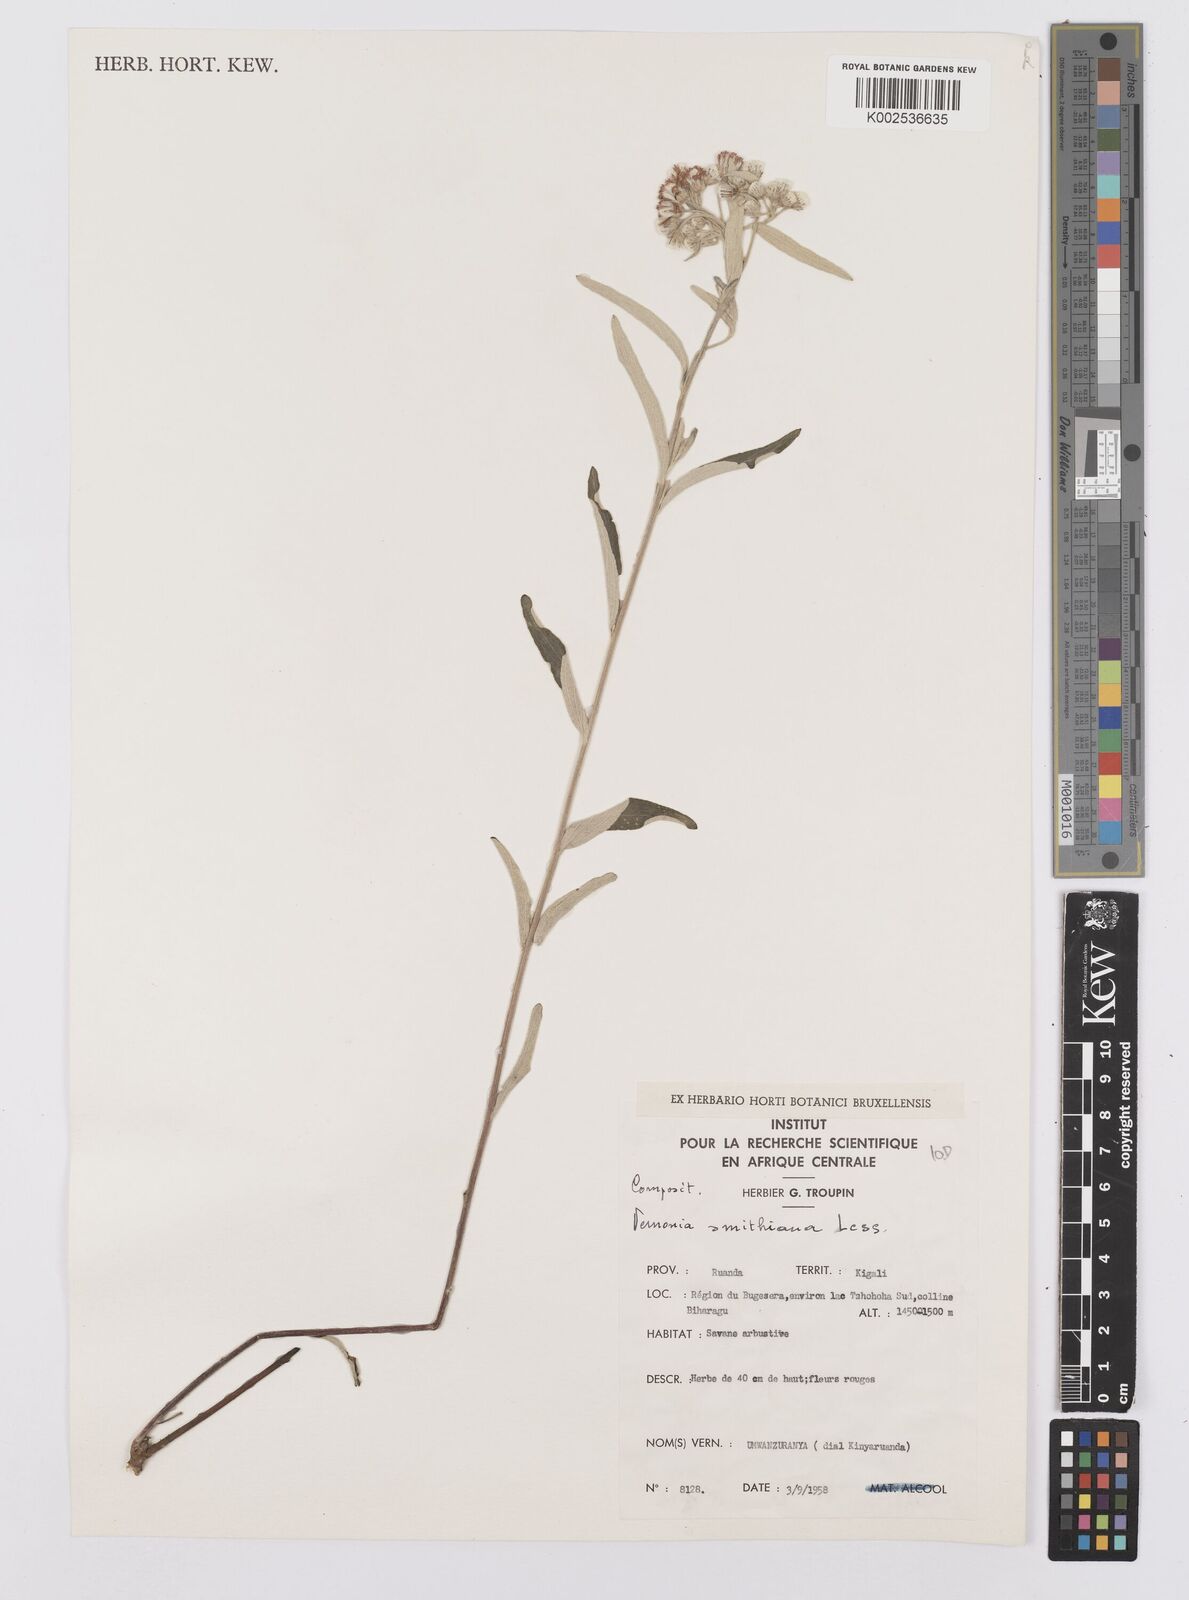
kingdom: Plantae
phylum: Tracheophyta
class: Magnoliopsida
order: Asterales
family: Asteraceae
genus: Hilliardiella
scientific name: Hilliardiella smithiana
